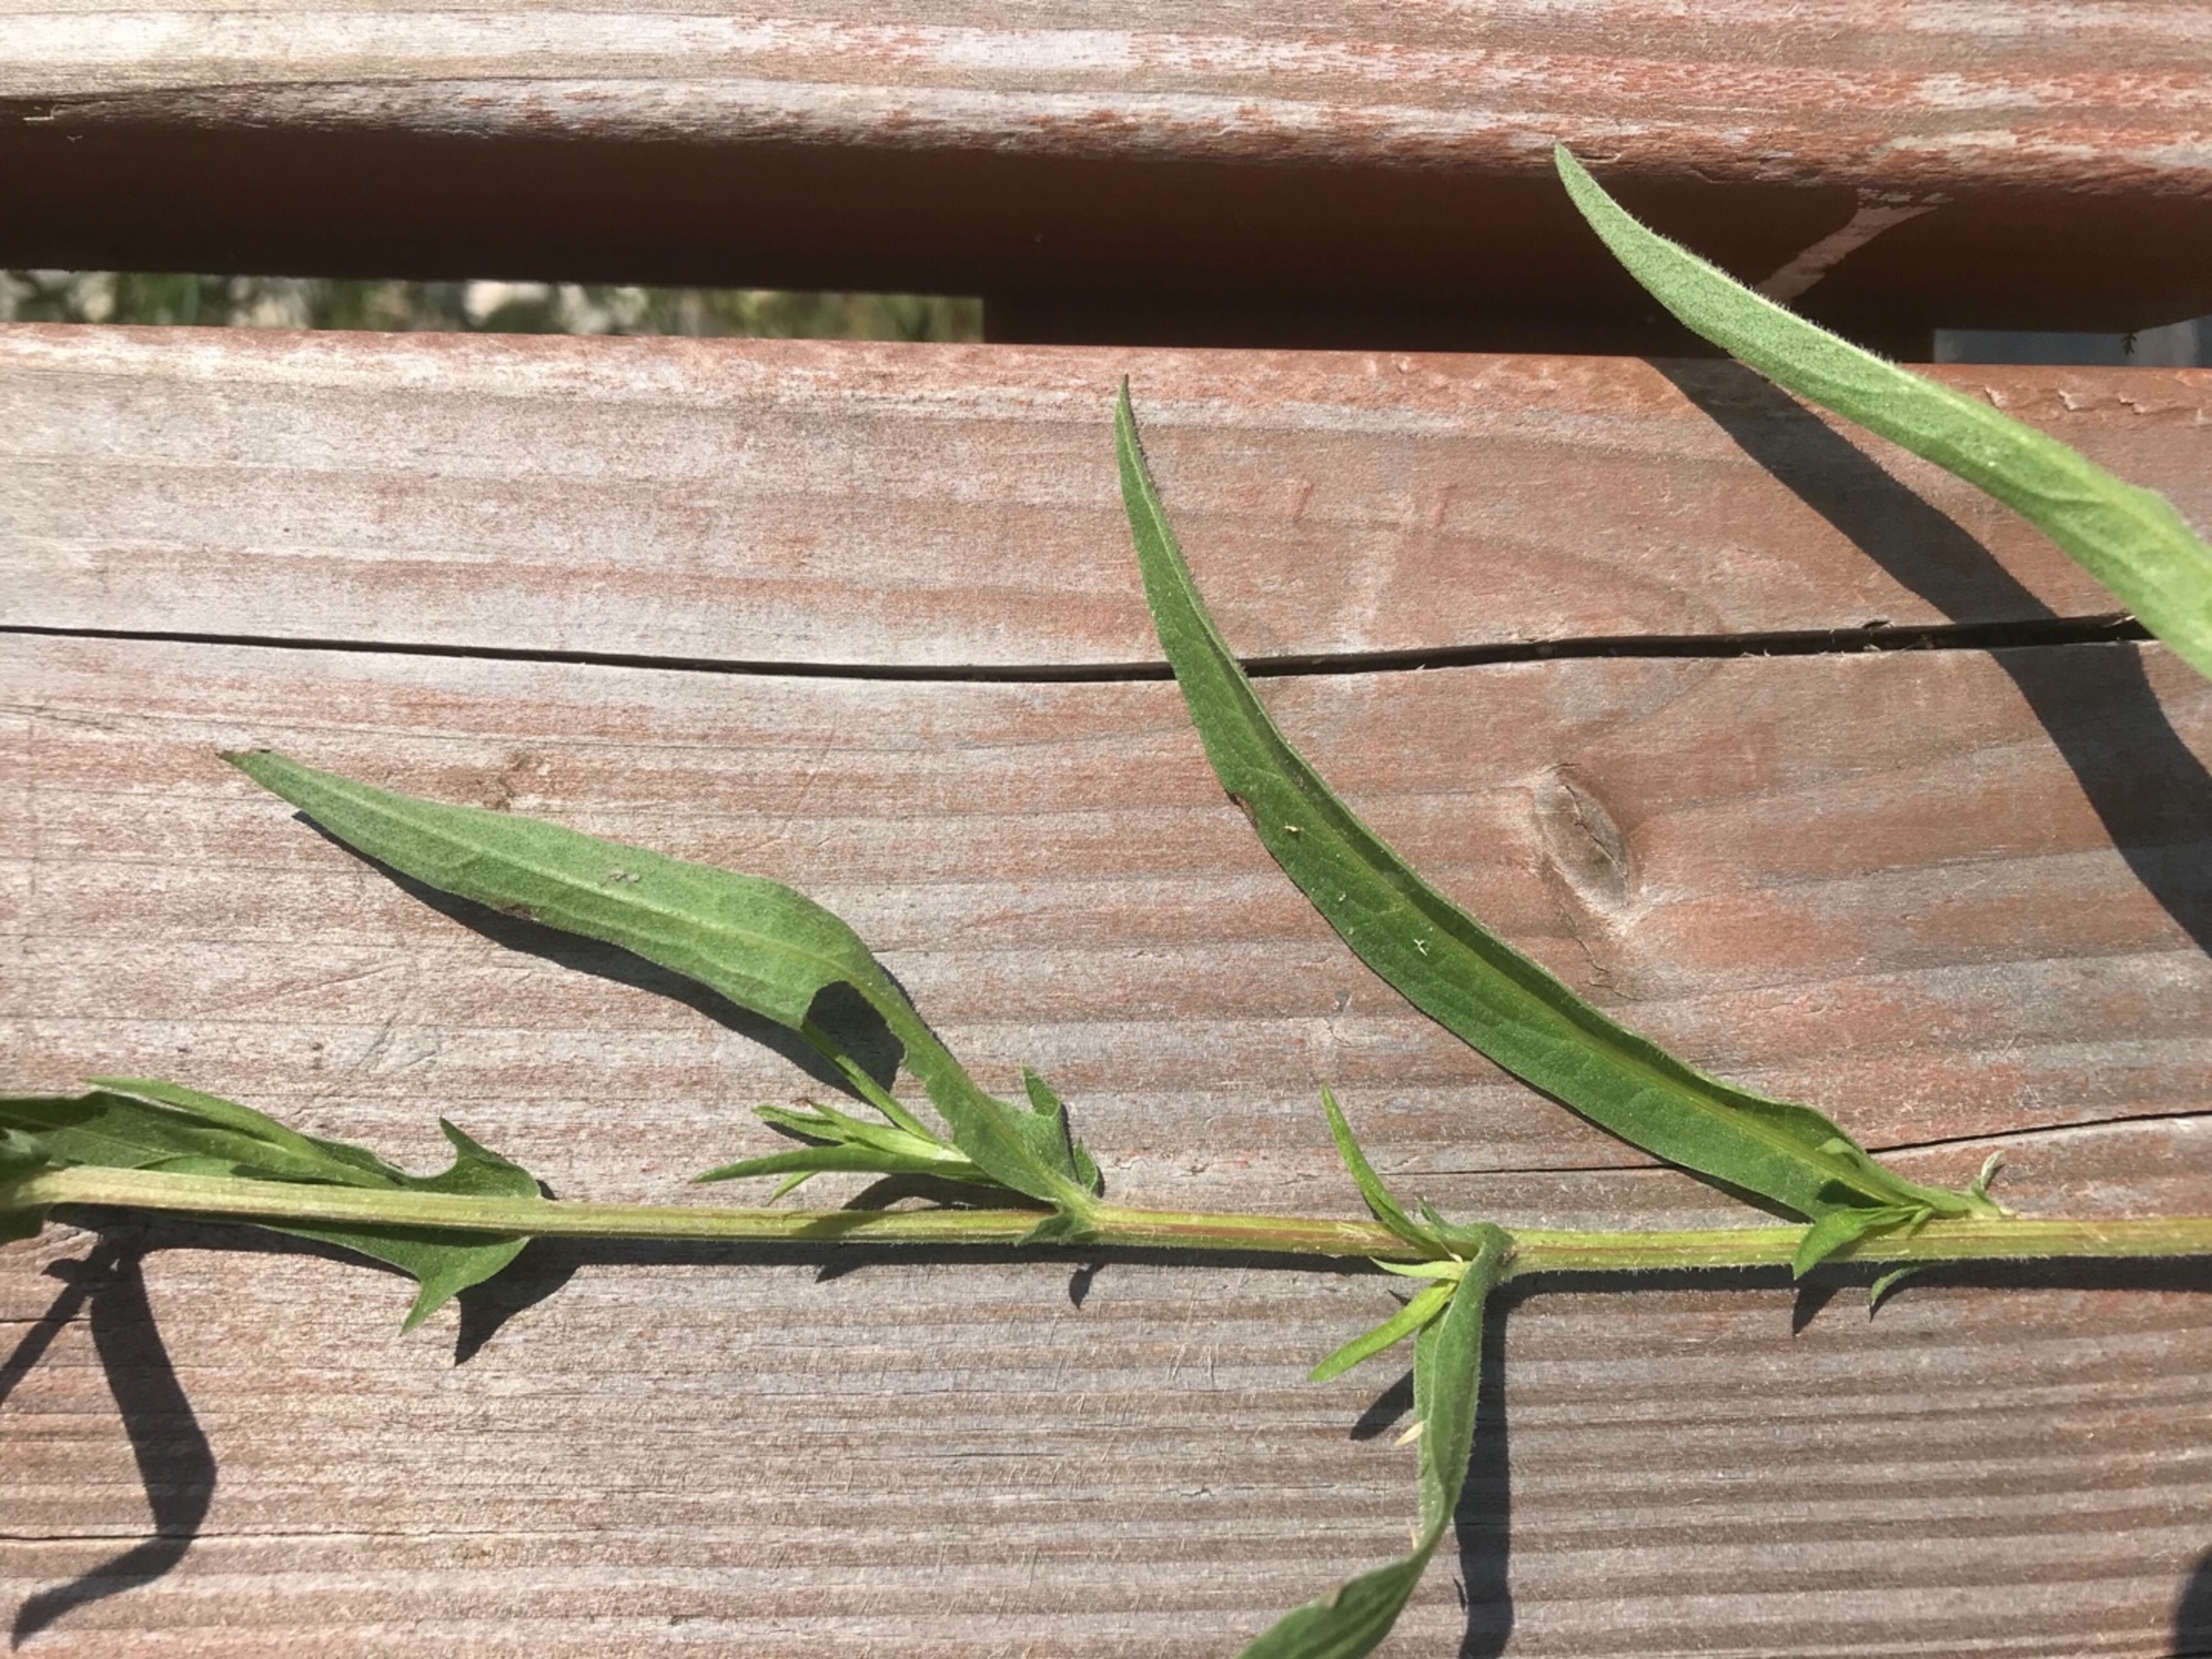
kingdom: Plantae
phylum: Tracheophyta
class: Magnoliopsida
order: Asterales
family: Asteraceae
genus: Centaurea
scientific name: Centaurea jacea
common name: Almindelig knopurt
